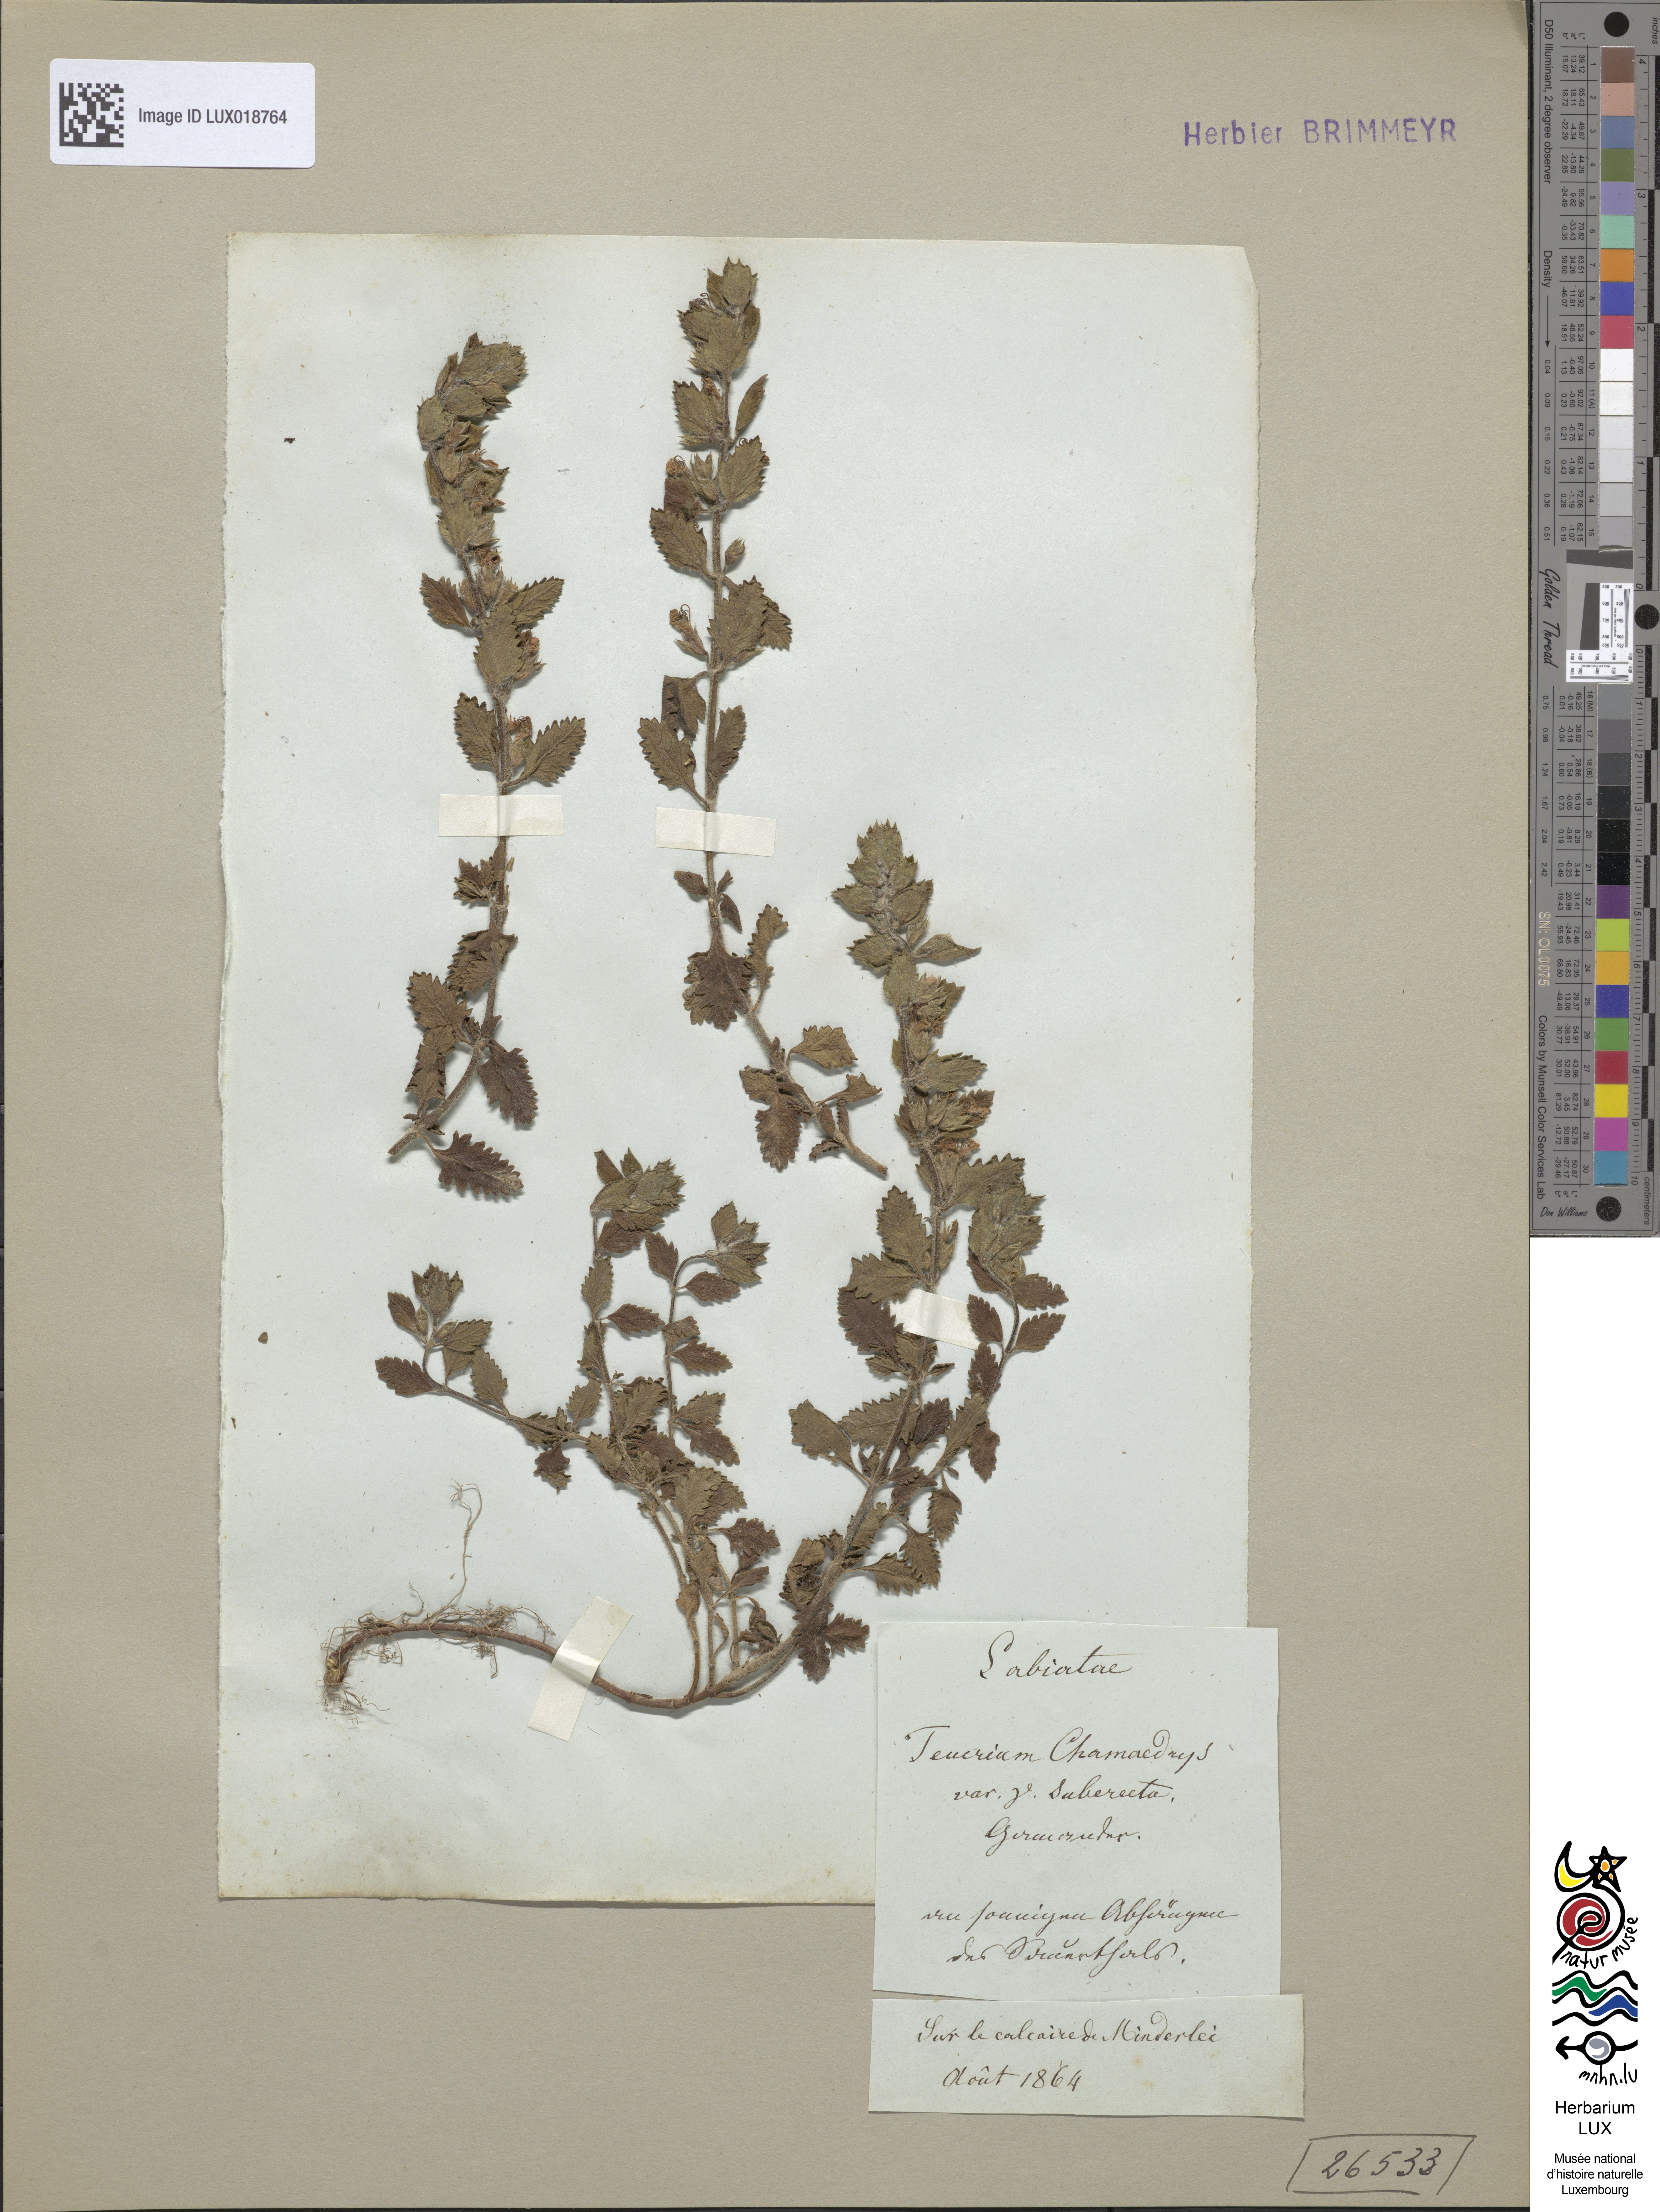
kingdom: Plantae
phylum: Tracheophyta
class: Magnoliopsida
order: Lamiales
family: Lamiaceae
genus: Teucrium
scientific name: Teucrium chamaedrys
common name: Wall germander
